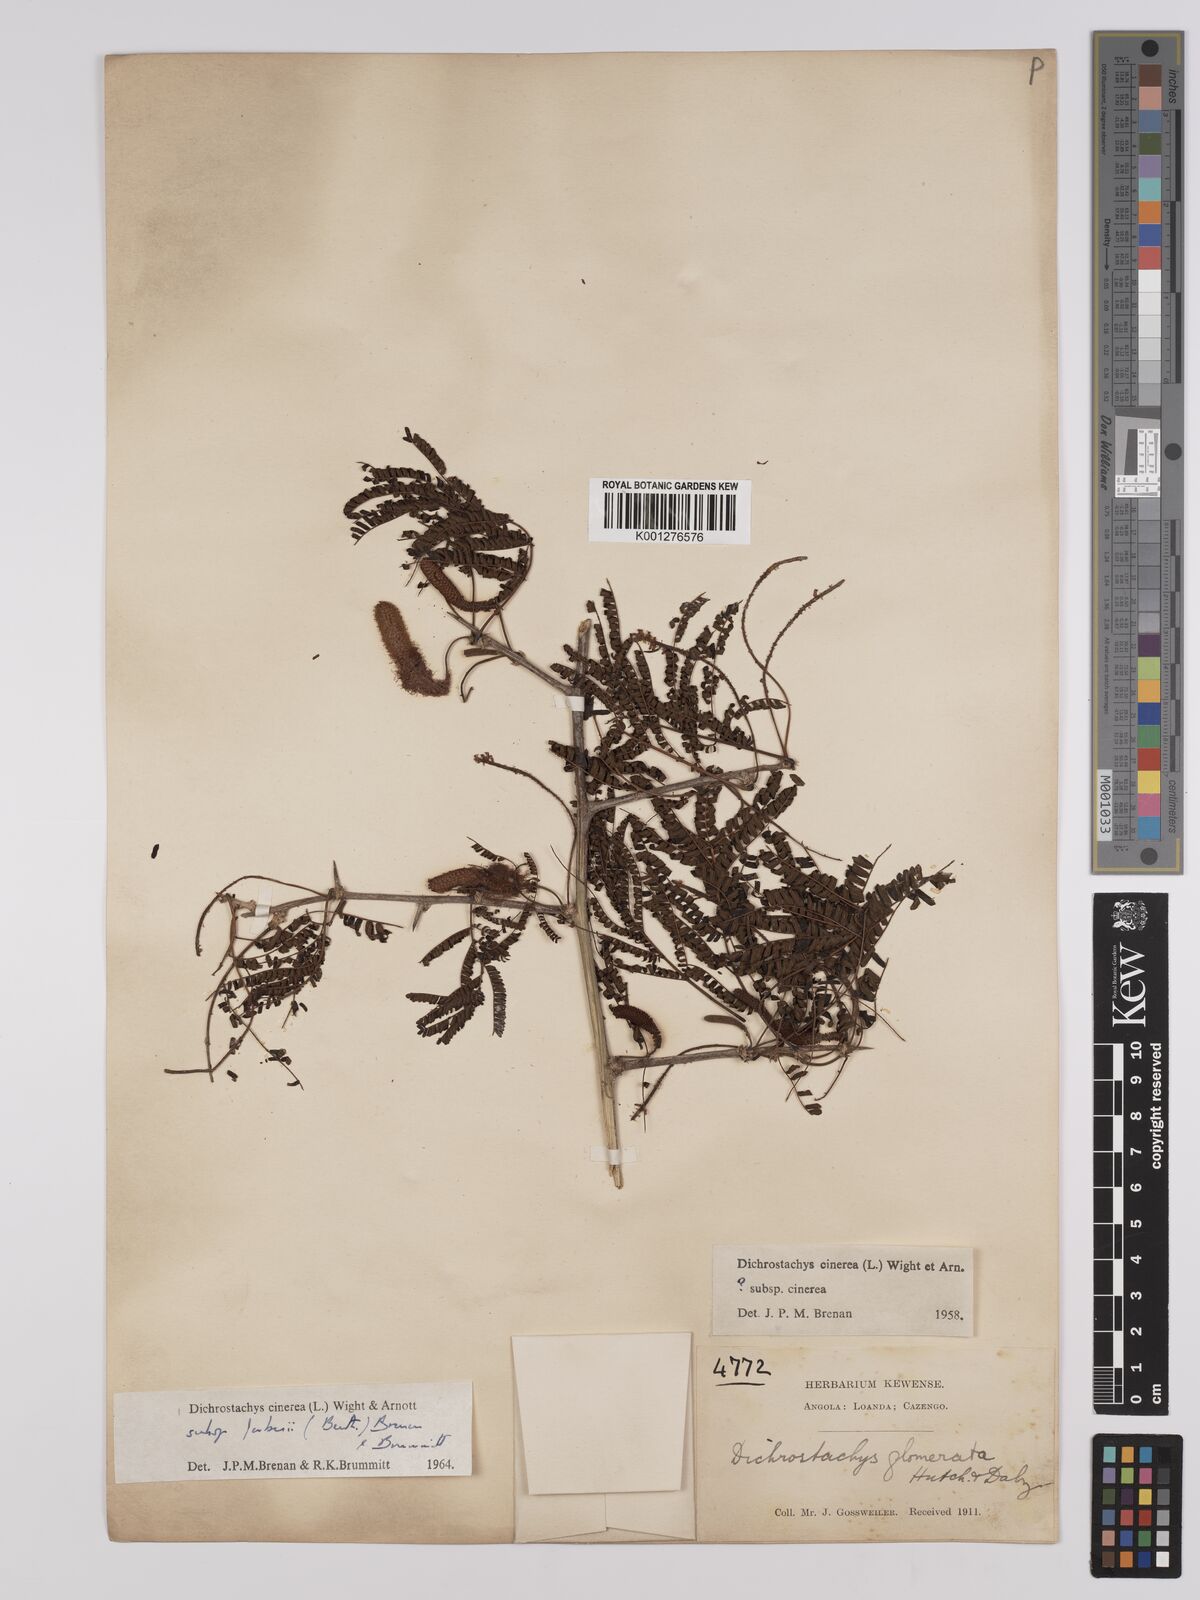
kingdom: Plantae
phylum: Tracheophyta
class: Magnoliopsida
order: Fabales
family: Fabaceae
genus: Dichrostachys
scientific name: Dichrostachys cinerea
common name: Sicklebush
